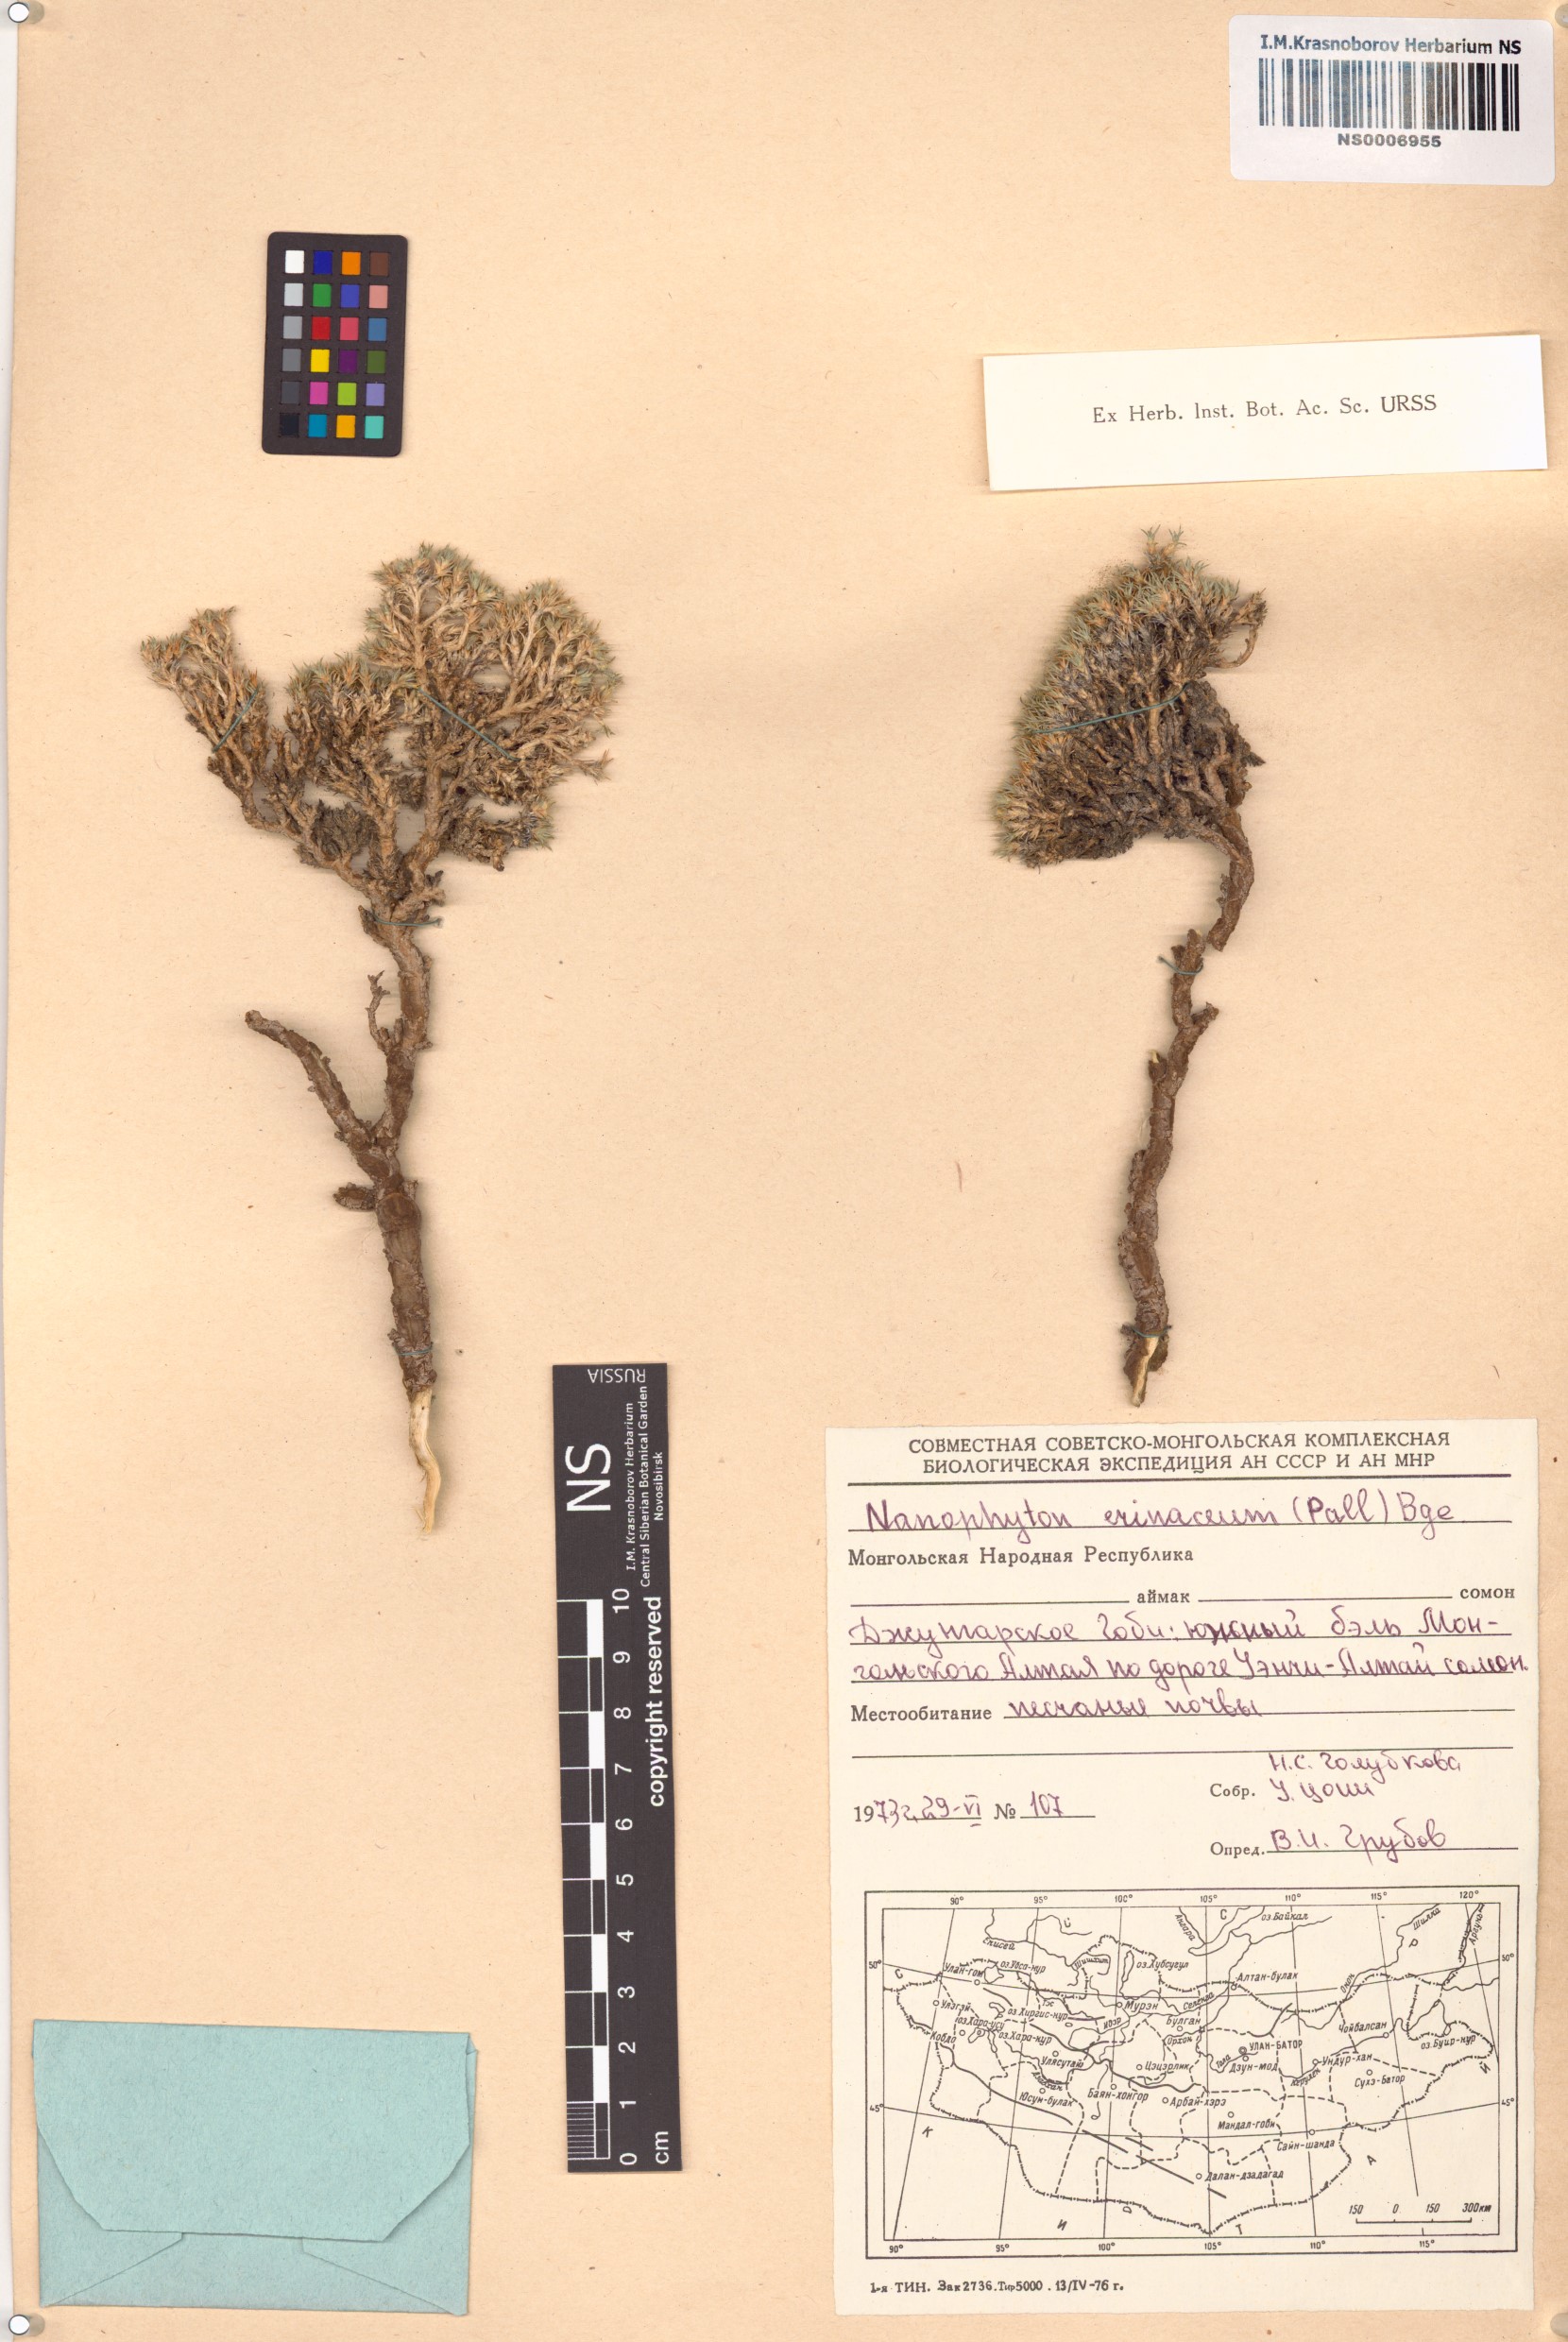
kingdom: Plantae
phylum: Tracheophyta
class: Magnoliopsida
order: Caryophyllales
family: Amaranthaceae
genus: Nanophyton
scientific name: Nanophyton erinaceum
